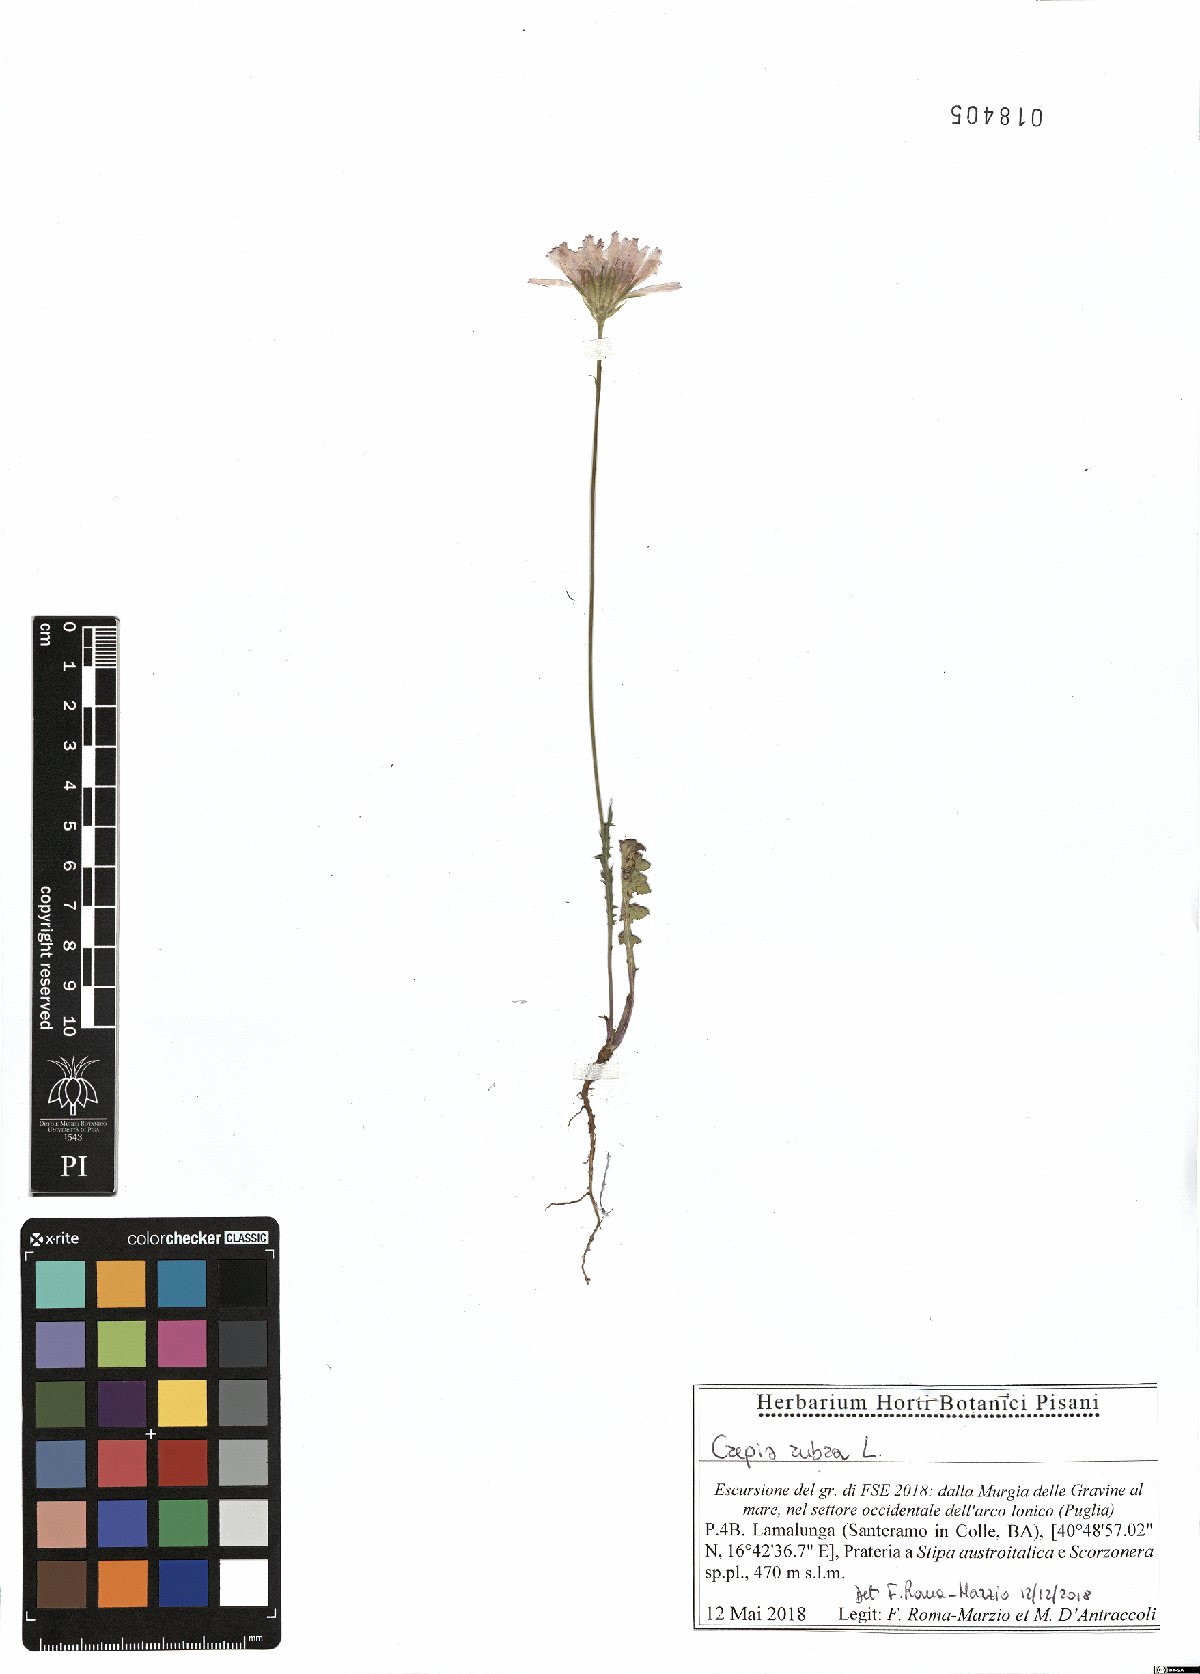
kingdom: Plantae
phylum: Tracheophyta
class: Magnoliopsida
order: Asterales
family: Asteraceae
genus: Crepis
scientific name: Crepis rubra
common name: Pink hawk's-beard
